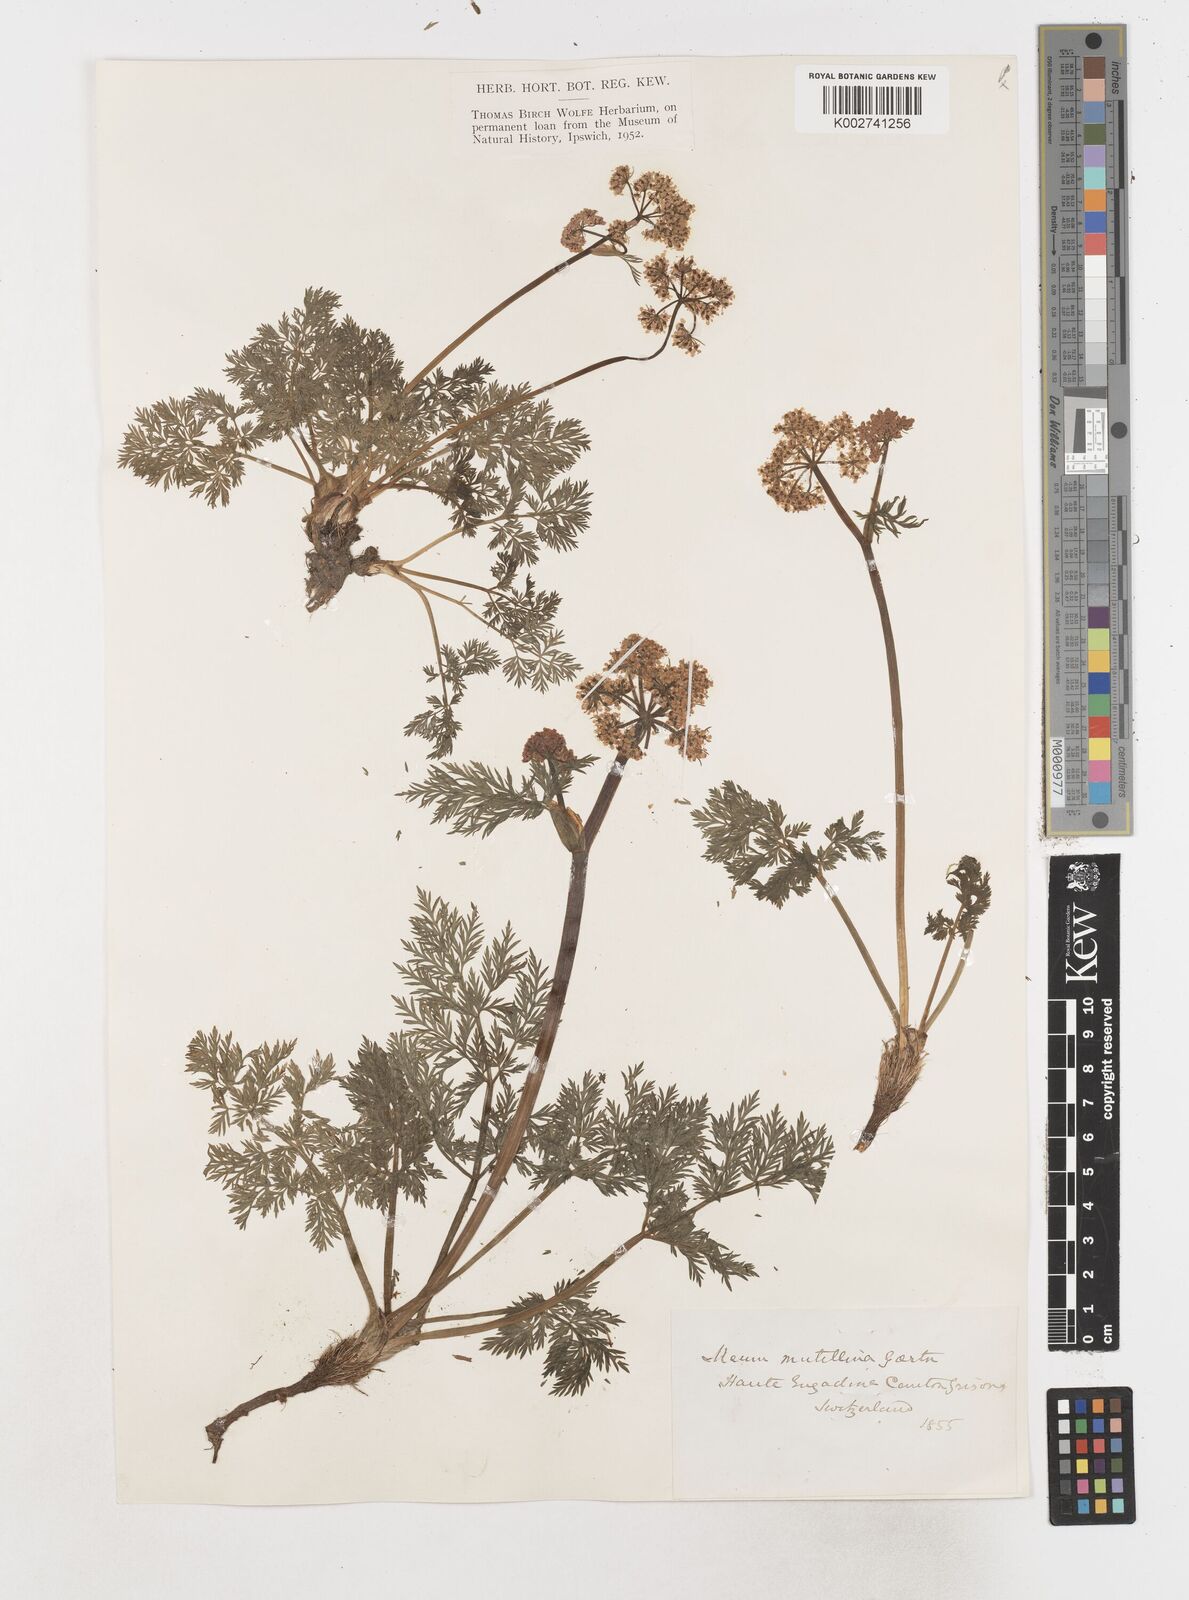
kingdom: Plantae
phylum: Tracheophyta
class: Magnoliopsida
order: Apiales
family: Apiaceae
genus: Mutellina
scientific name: Mutellina adonidifolia
